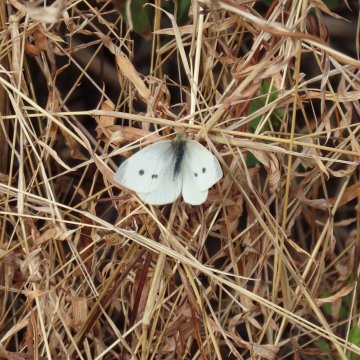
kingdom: Animalia
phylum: Arthropoda
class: Insecta
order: Lepidoptera
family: Pieridae
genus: Pieris
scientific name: Pieris rapae
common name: Cabbage White
